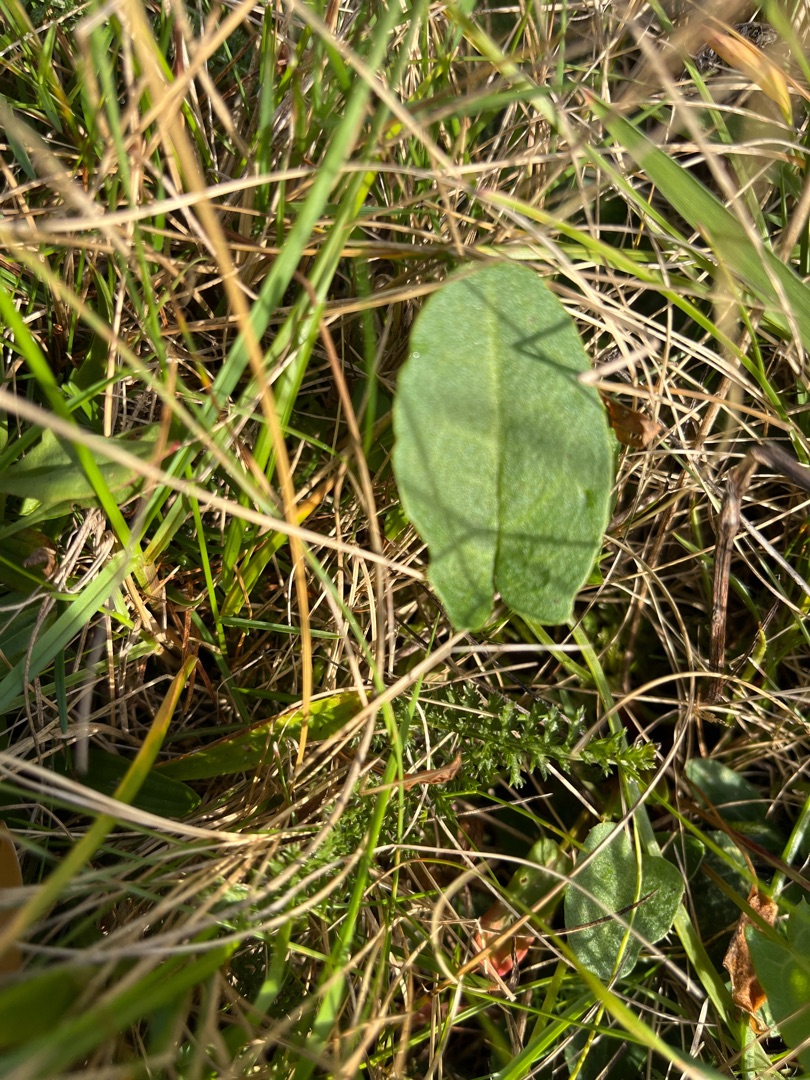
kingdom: Plantae
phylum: Tracheophyta
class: Magnoliopsida
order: Caryophyllales
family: Polygonaceae
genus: Rumex
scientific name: Rumex acetosa
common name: Almindelig syre
